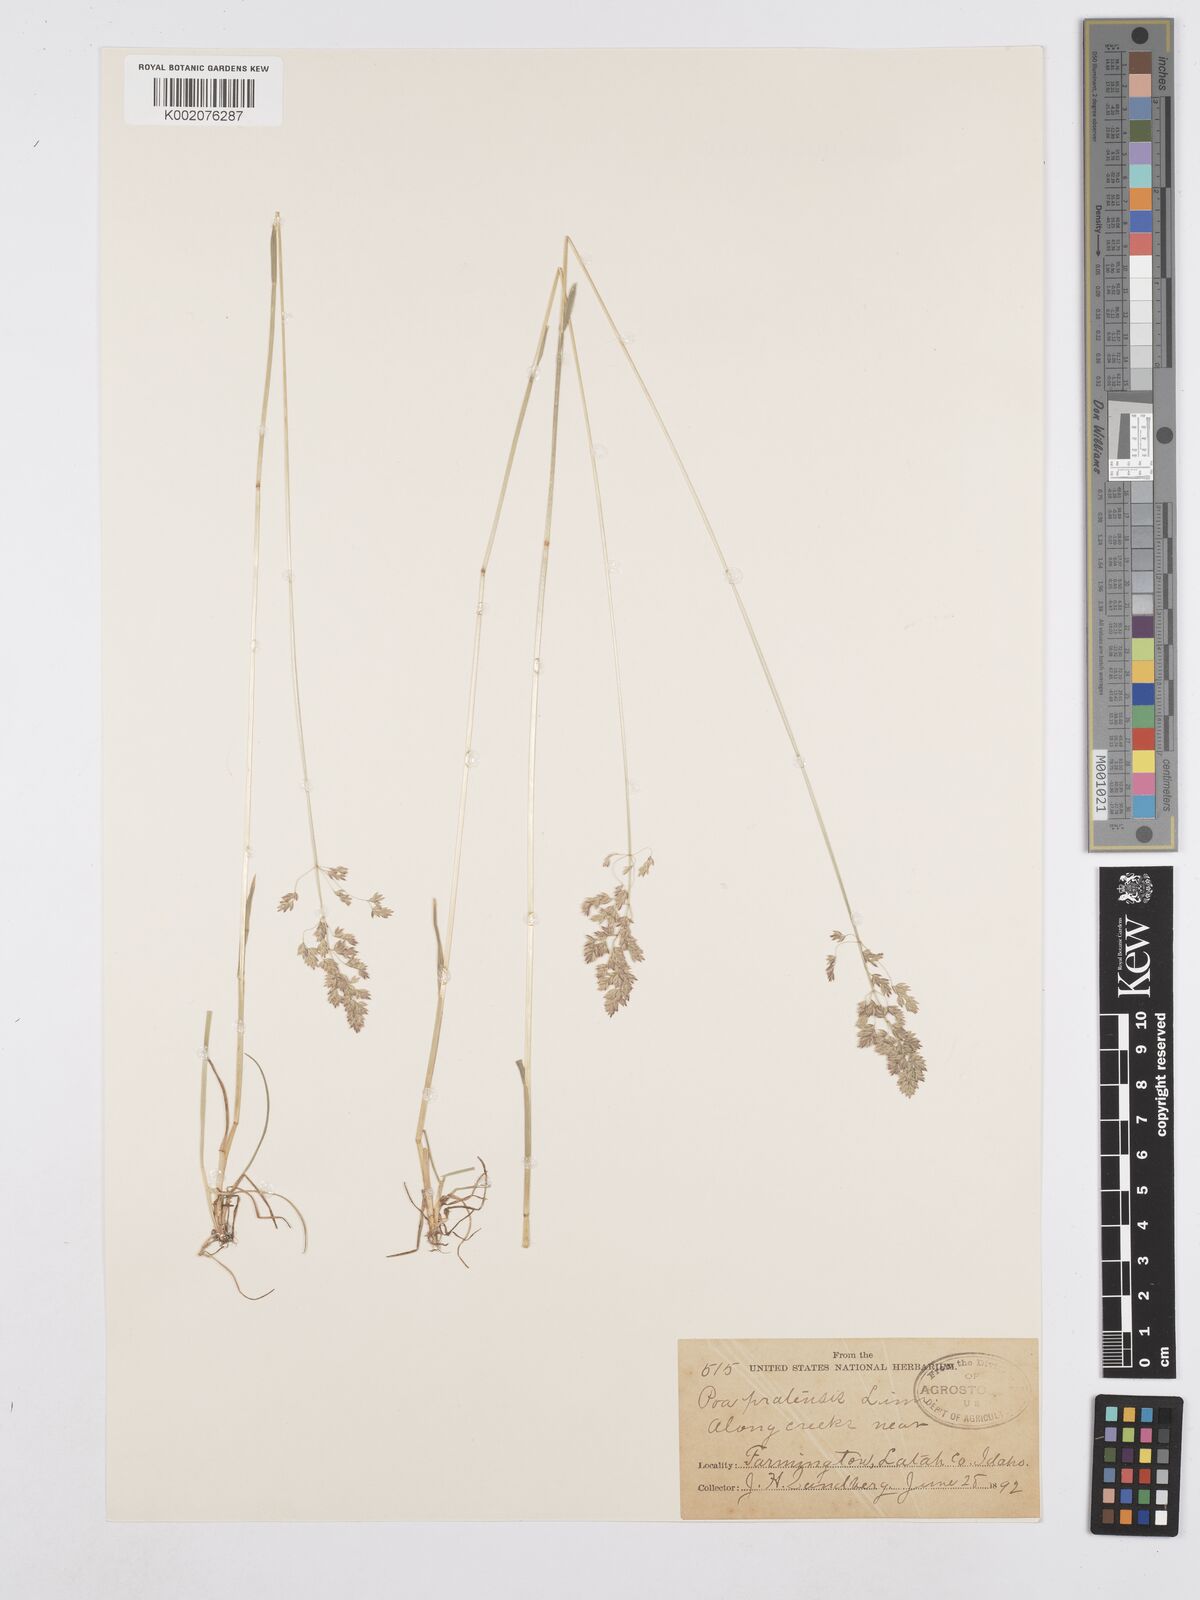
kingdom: Plantae
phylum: Tracheophyta
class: Liliopsida
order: Poales
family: Poaceae
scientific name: Poaceae
